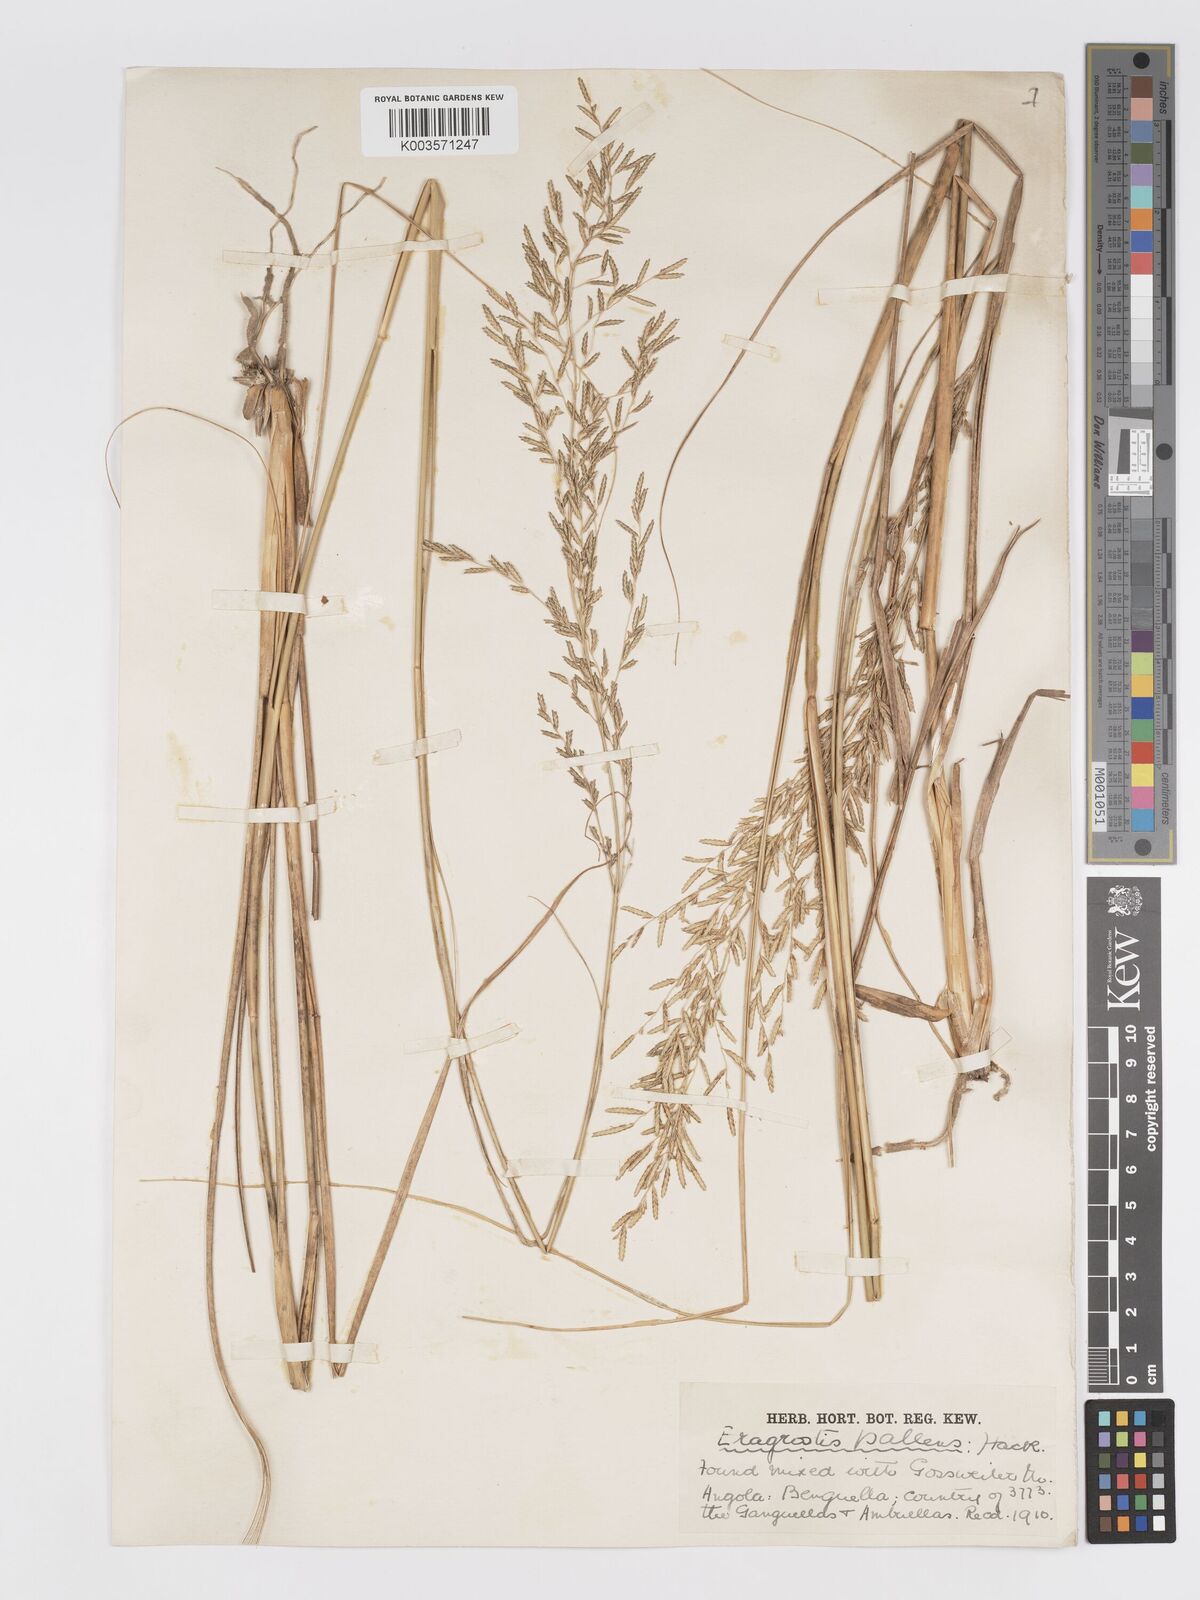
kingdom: Plantae
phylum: Tracheophyta
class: Liliopsida
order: Poales
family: Poaceae
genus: Eragrostis
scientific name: Eragrostis pallens
